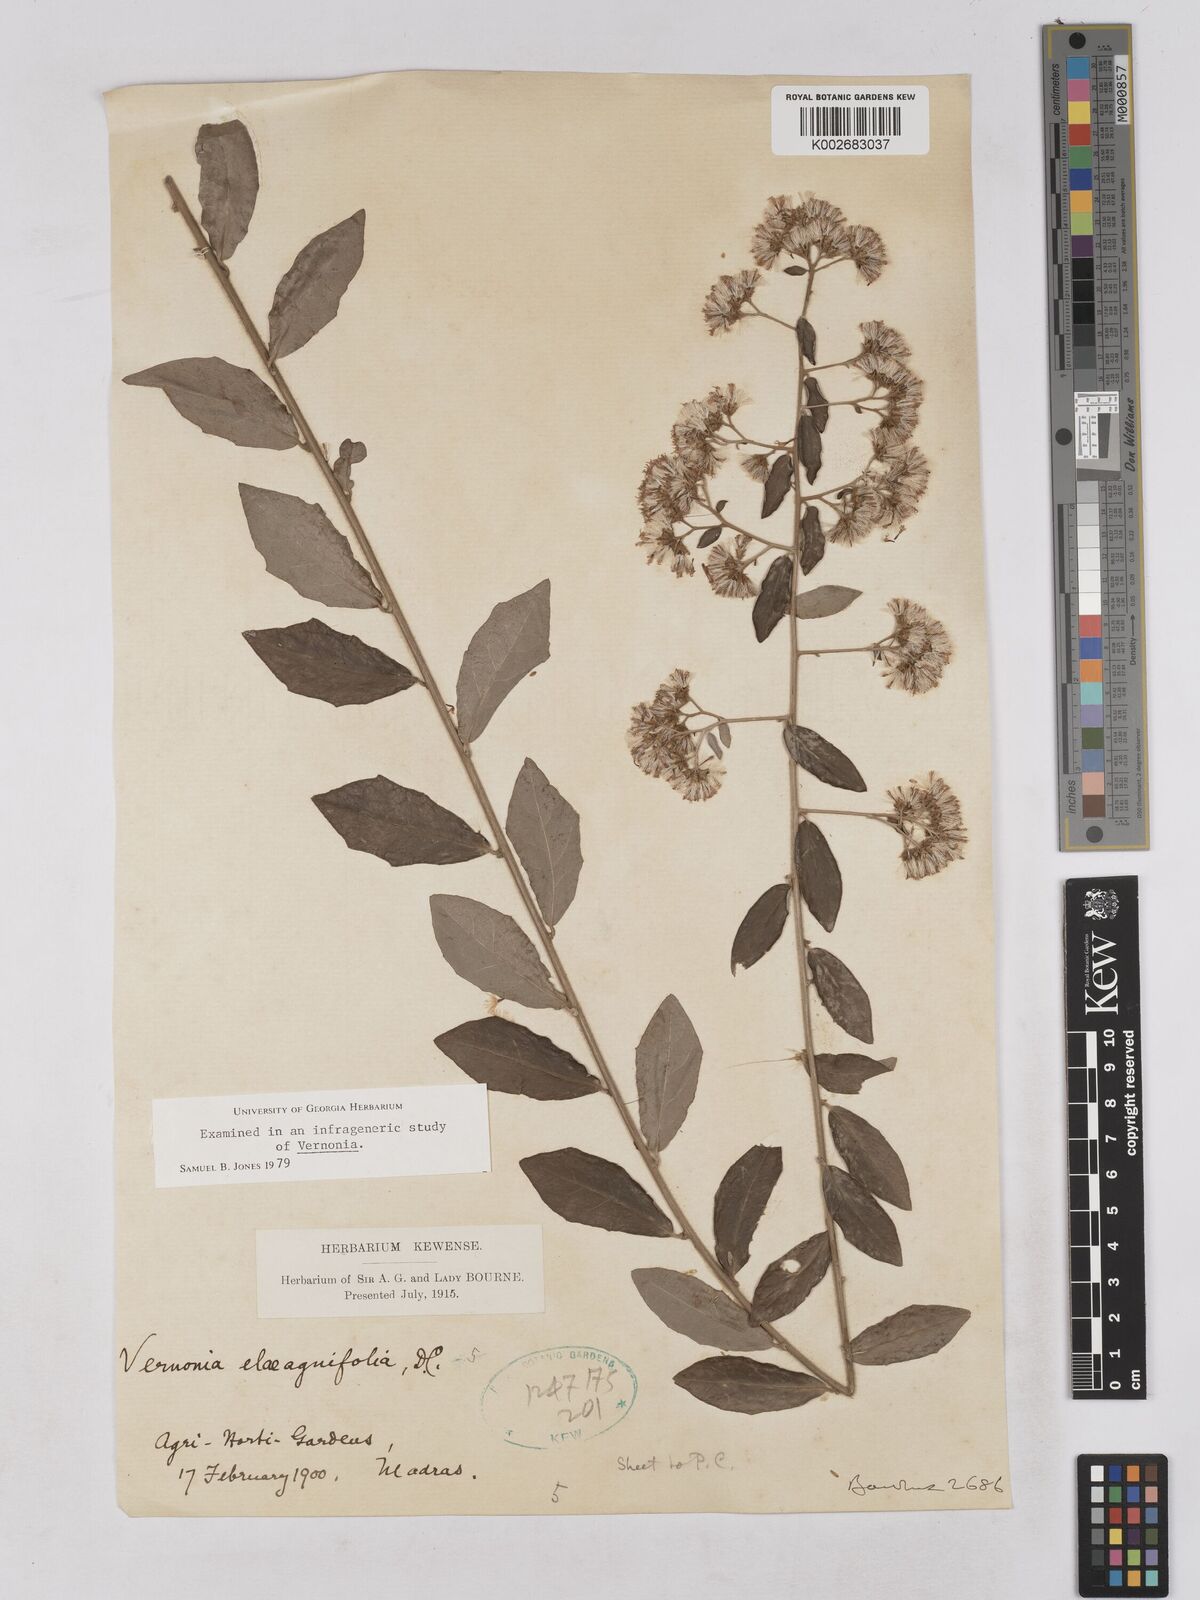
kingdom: Plantae
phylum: Tracheophyta
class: Magnoliopsida
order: Asterales
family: Asteraceae
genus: Tarlmounia
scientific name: Tarlmounia elliptica
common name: Kheua sa lot
